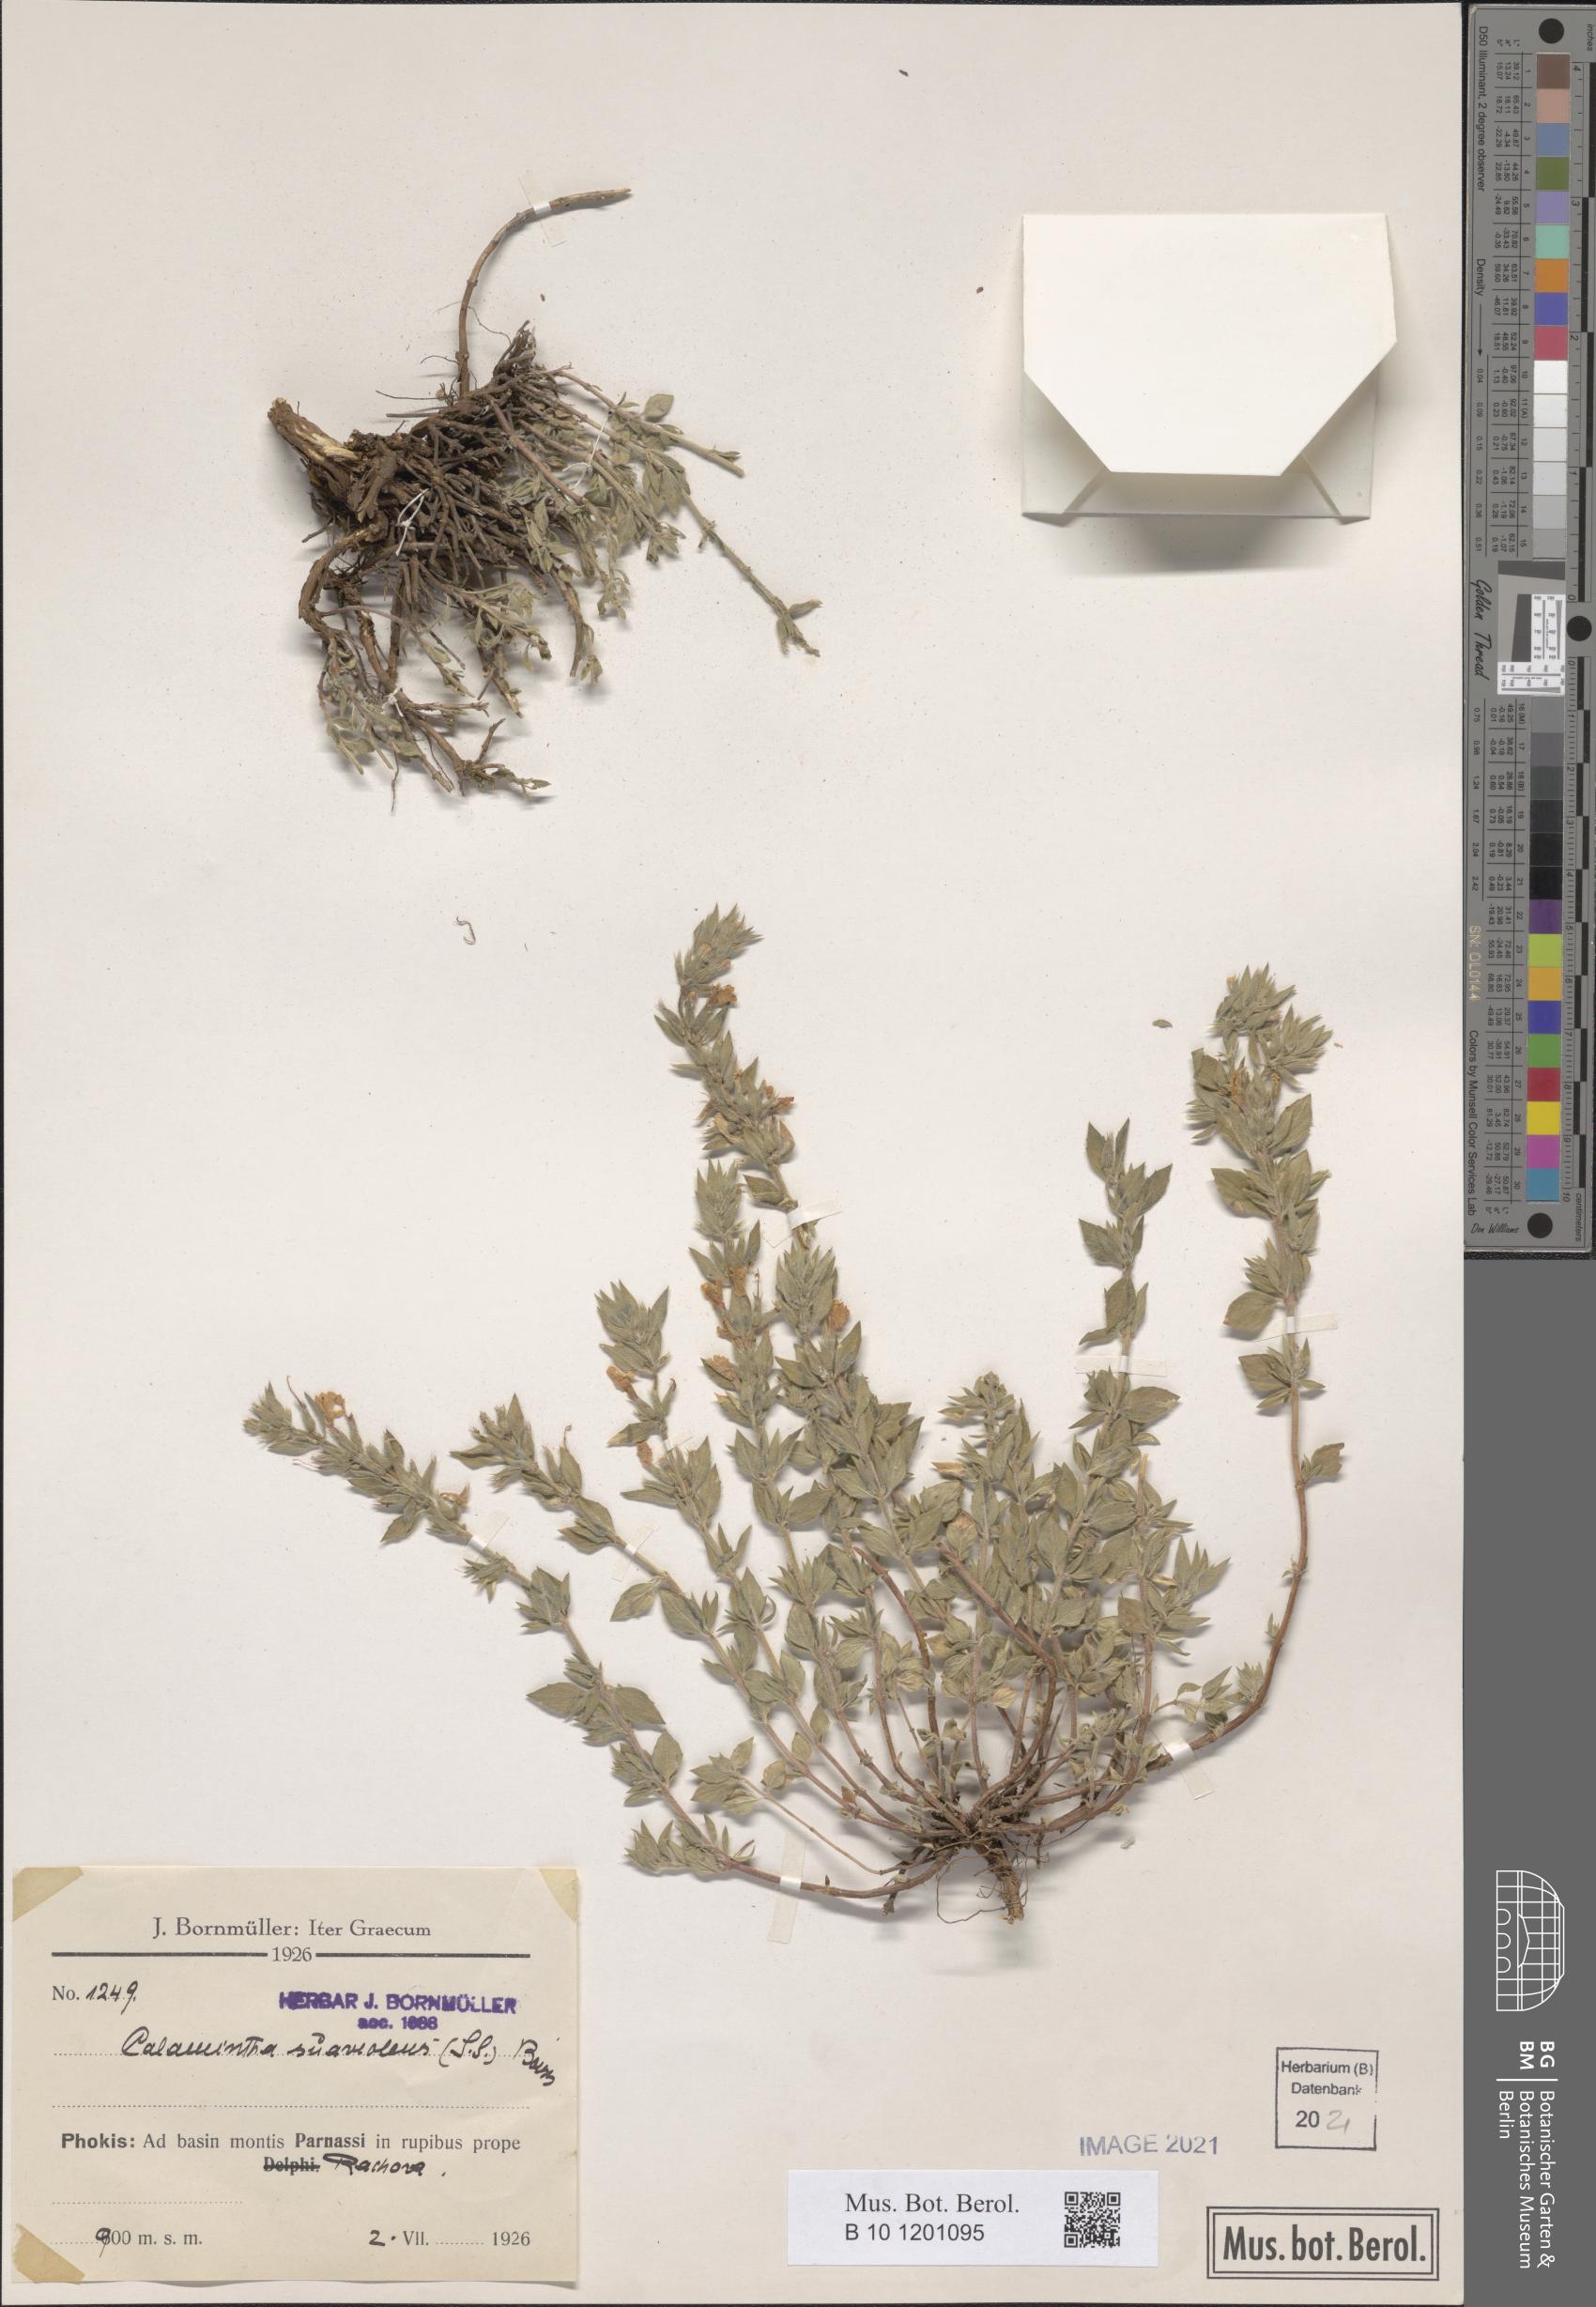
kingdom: Plantae
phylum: Tracheophyta
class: Magnoliopsida
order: Lamiales
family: Lamiaceae
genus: Clinopodium
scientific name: Clinopodium suaveolens
